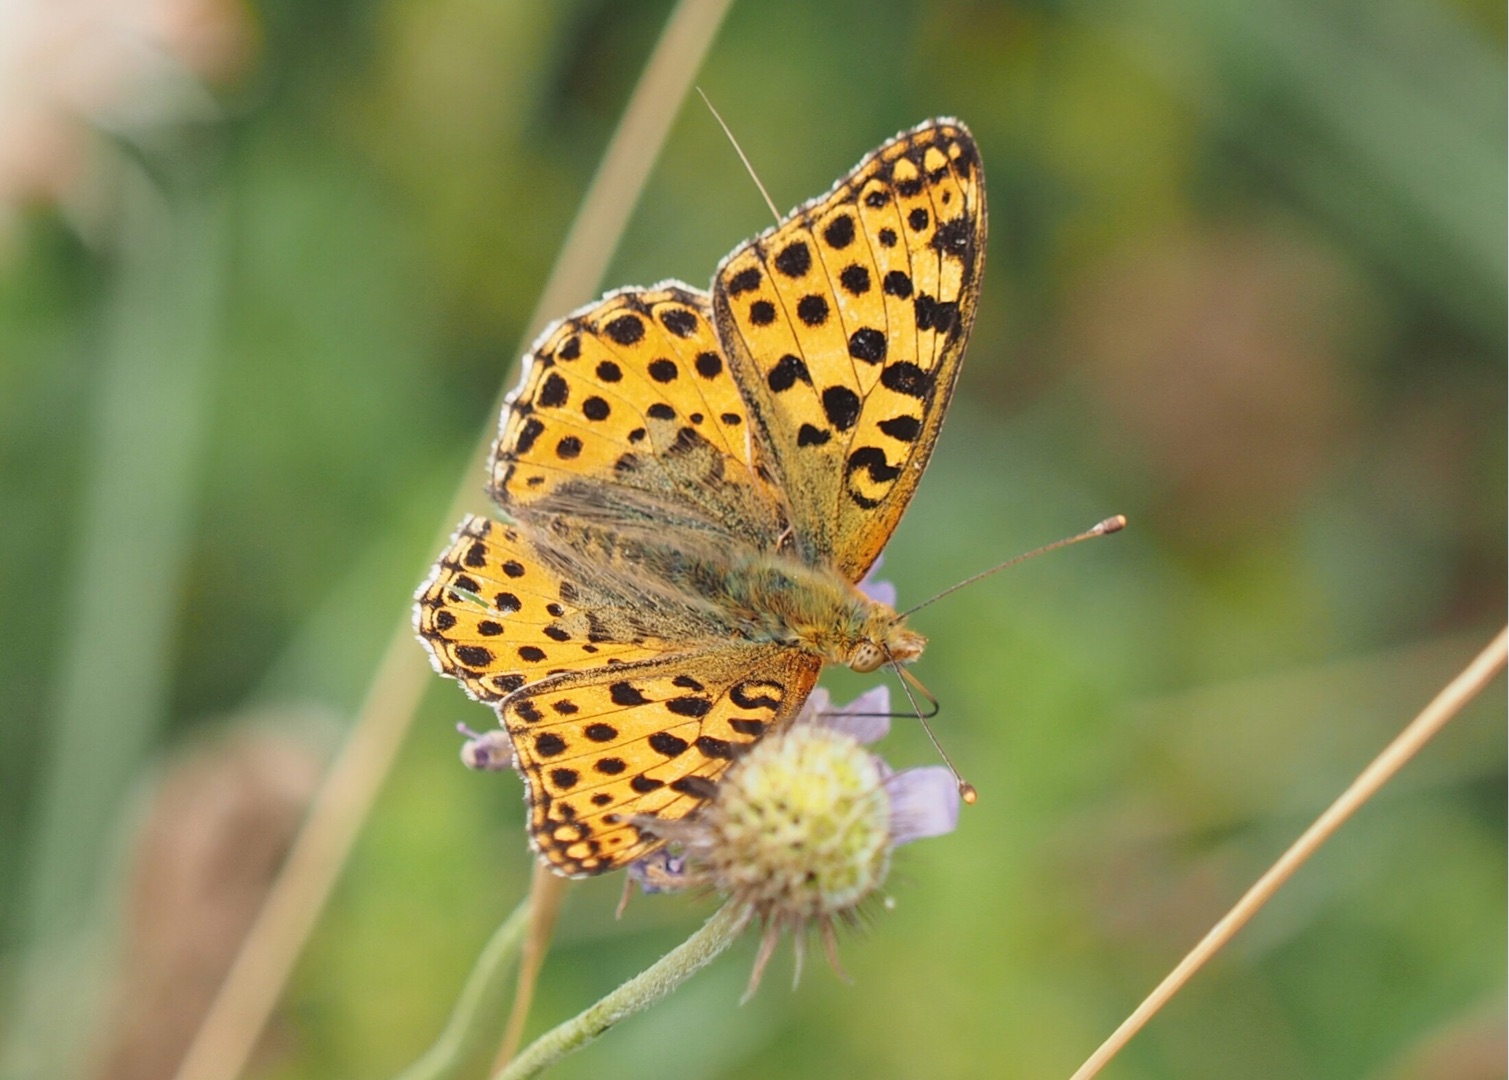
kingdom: Animalia
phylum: Arthropoda
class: Insecta
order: Lepidoptera
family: Nymphalidae
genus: Issoria
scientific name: Issoria lathonia
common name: Storplettet perlemorsommerfugl
